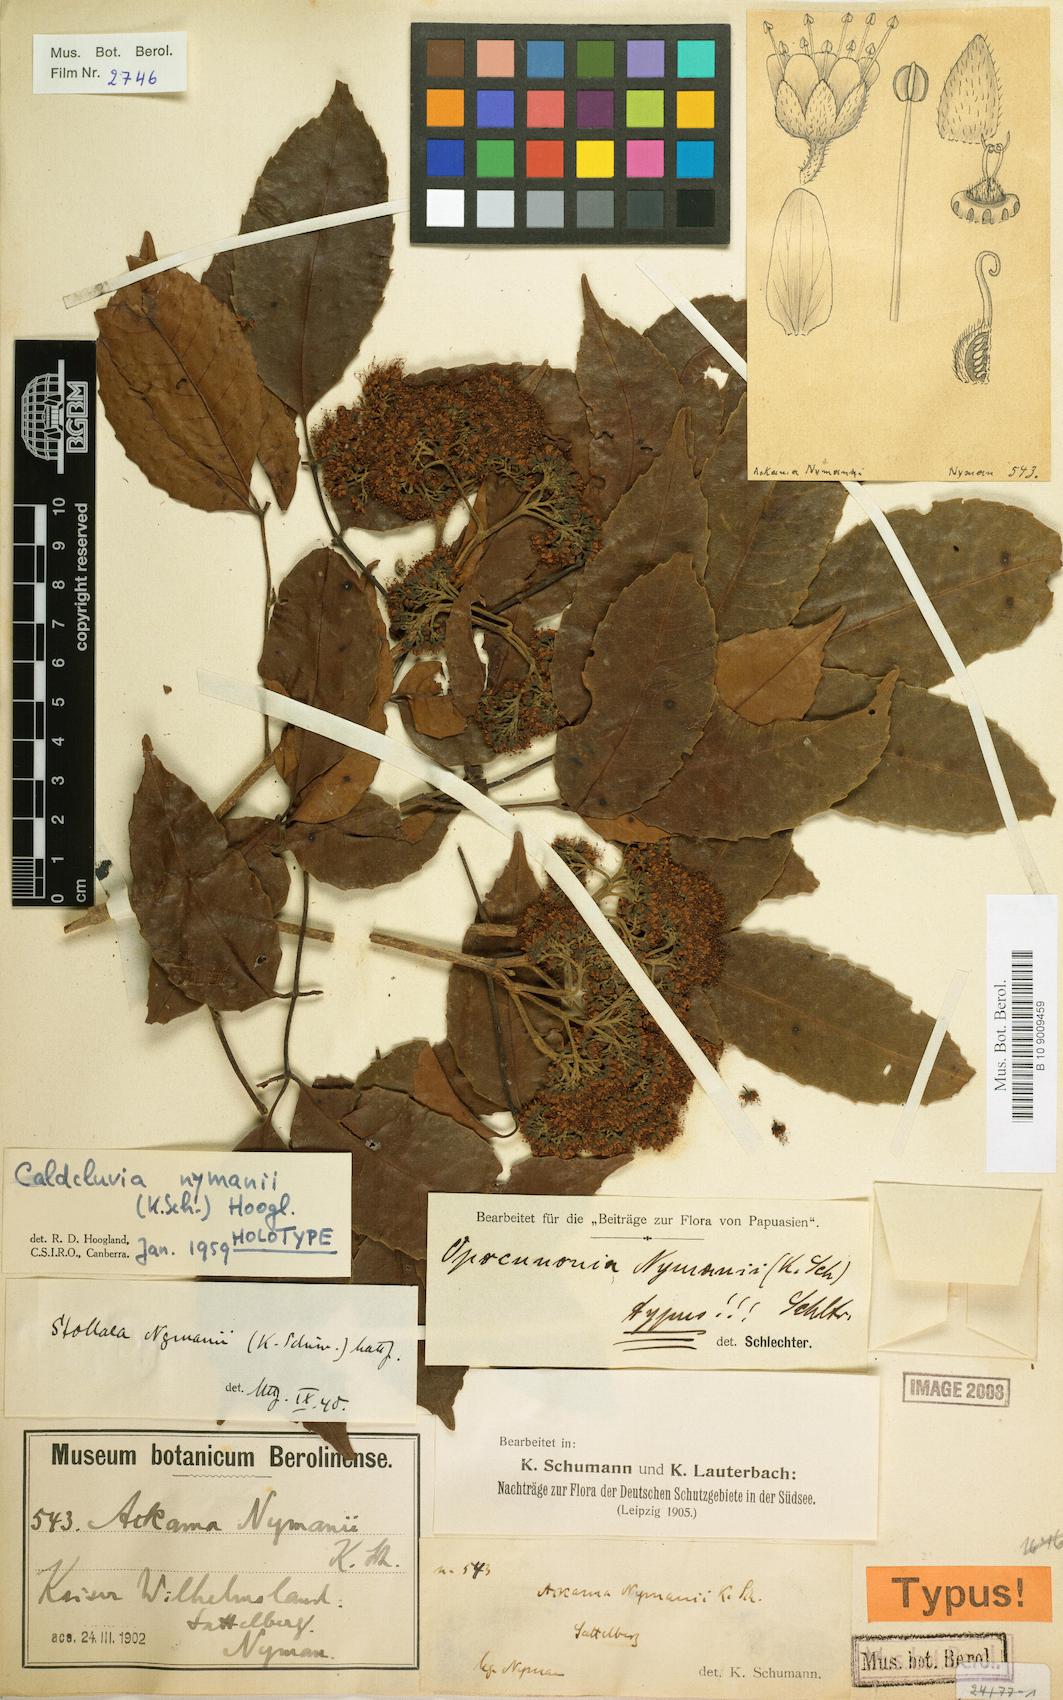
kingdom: Plantae
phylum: Tracheophyta
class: Magnoliopsida
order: Oxalidales
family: Cunoniaceae
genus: Opocunonia
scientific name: Opocunonia nymanii
